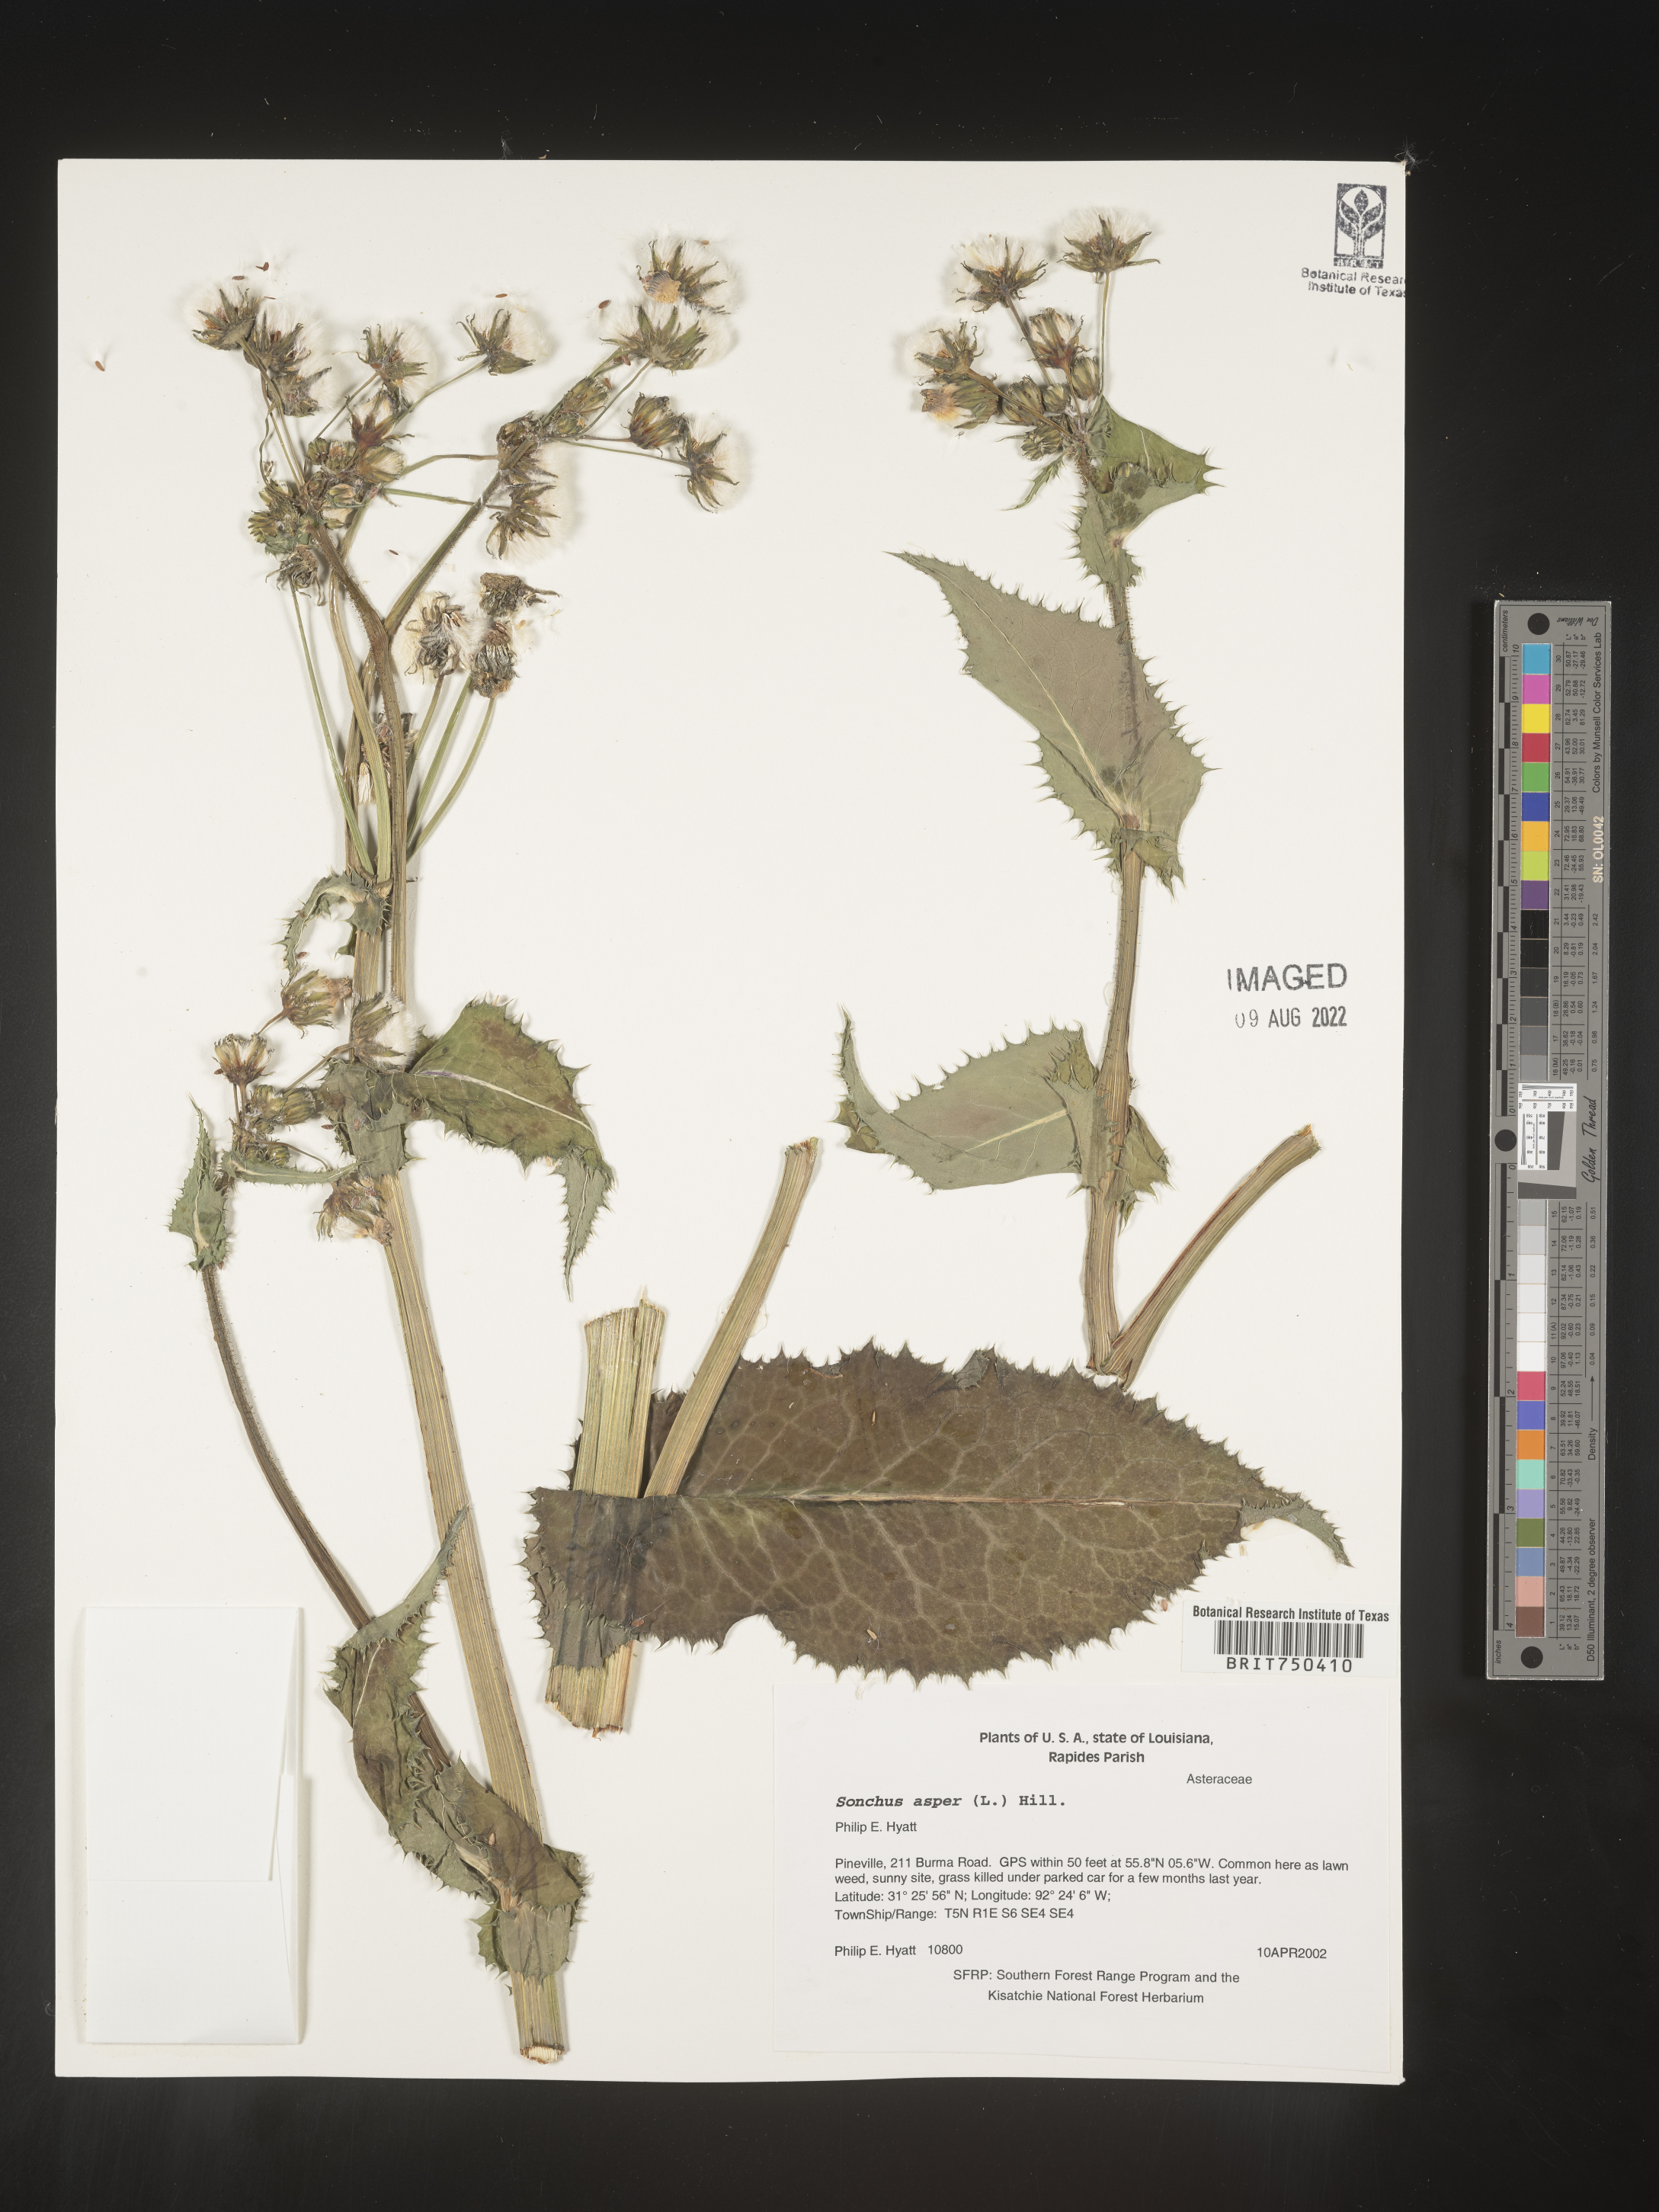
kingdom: Plantae
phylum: Tracheophyta
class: Magnoliopsida
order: Asterales
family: Asteraceae
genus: Sonchus
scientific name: Sonchus asper
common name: Prickly sow-thistle
